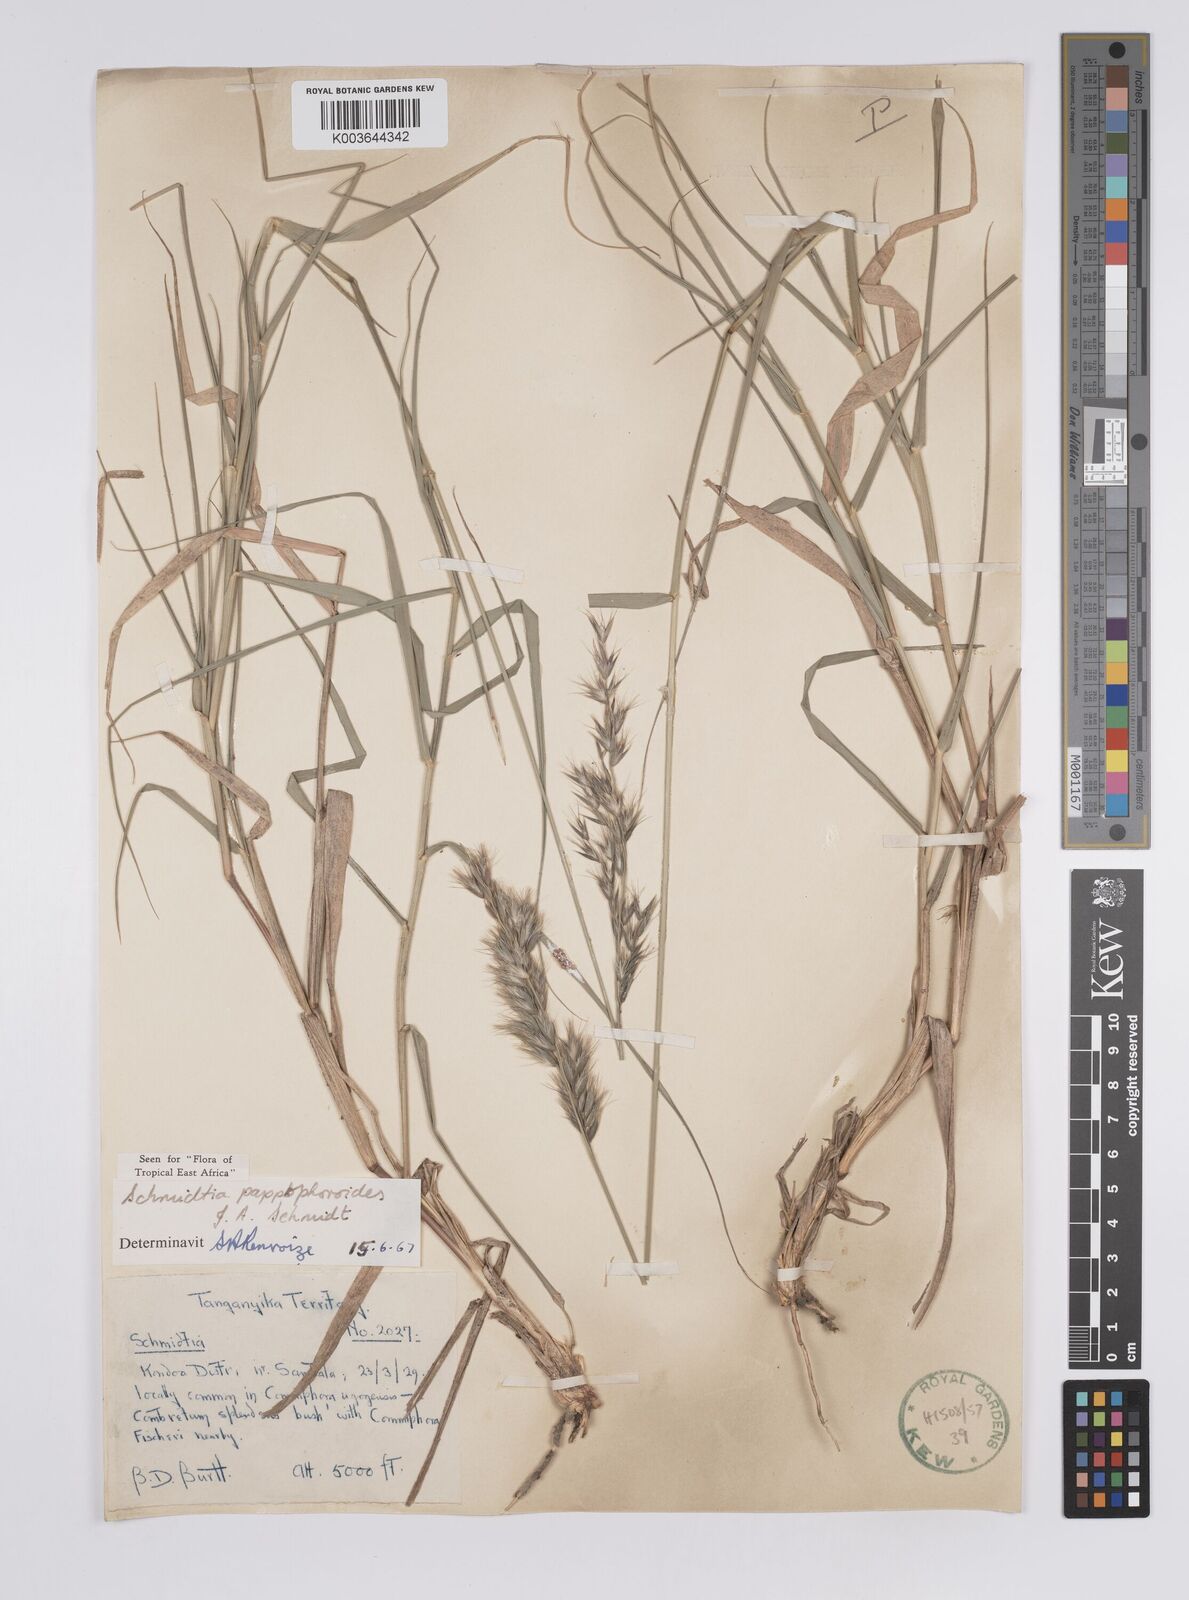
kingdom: Plantae
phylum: Tracheophyta
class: Liliopsida
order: Poales
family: Poaceae
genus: Schmidtia
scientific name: Schmidtia pappophoroides
